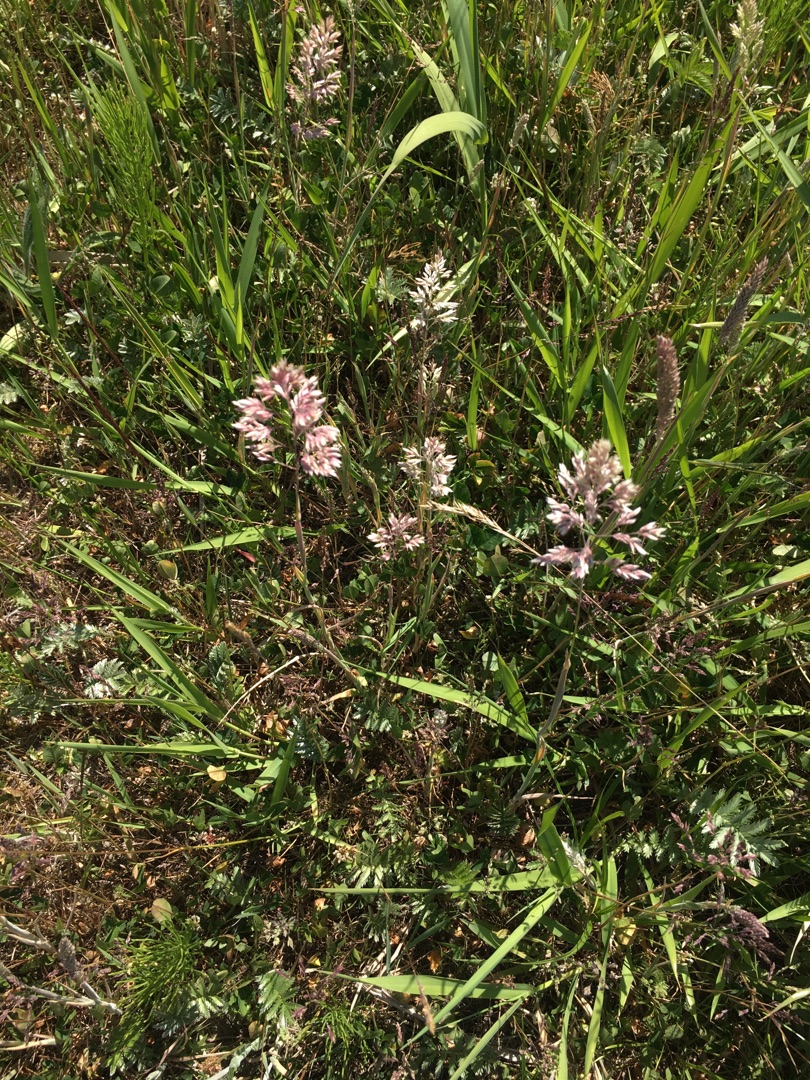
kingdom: Plantae
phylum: Tracheophyta
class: Liliopsida
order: Poales
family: Poaceae
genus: Holcus
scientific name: Holcus lanatus
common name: Fløjlsgræs
